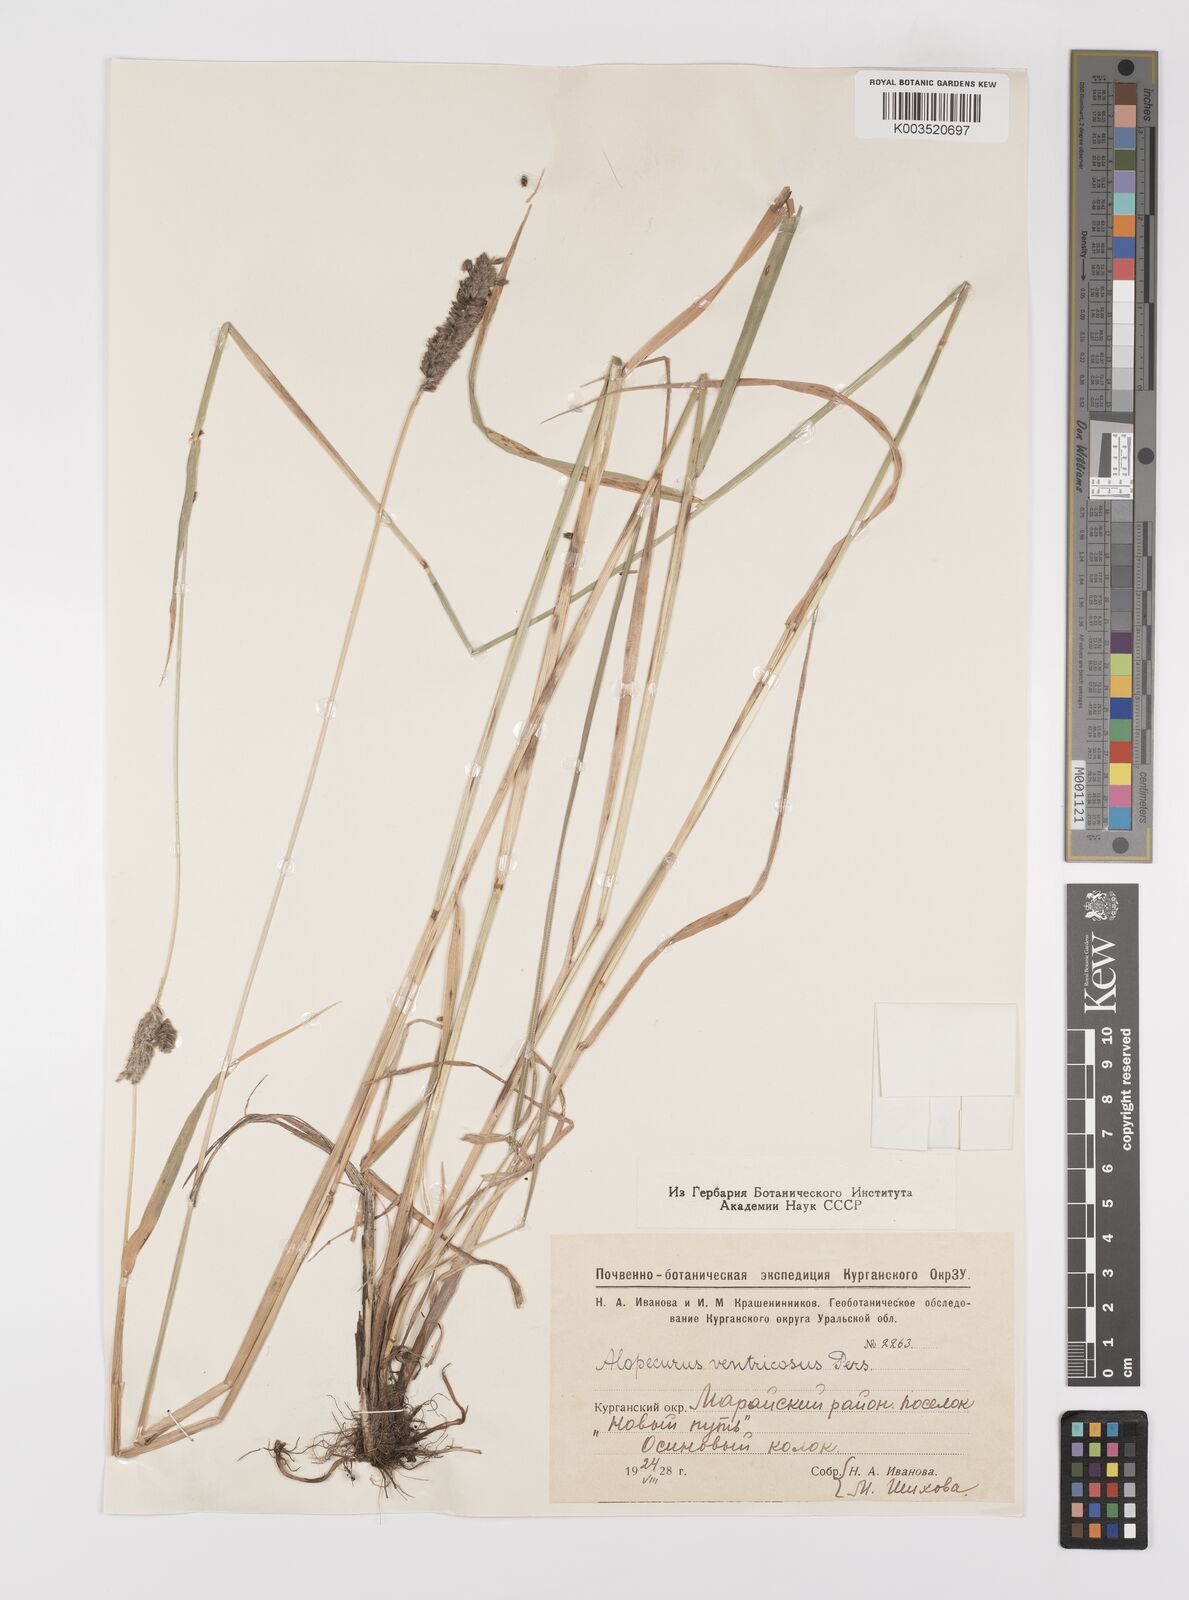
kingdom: Plantae
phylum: Tracheophyta
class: Liliopsida
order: Poales
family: Poaceae
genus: Alopecurus
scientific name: Alopecurus arundinaceus
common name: Creeping meadow foxtail
